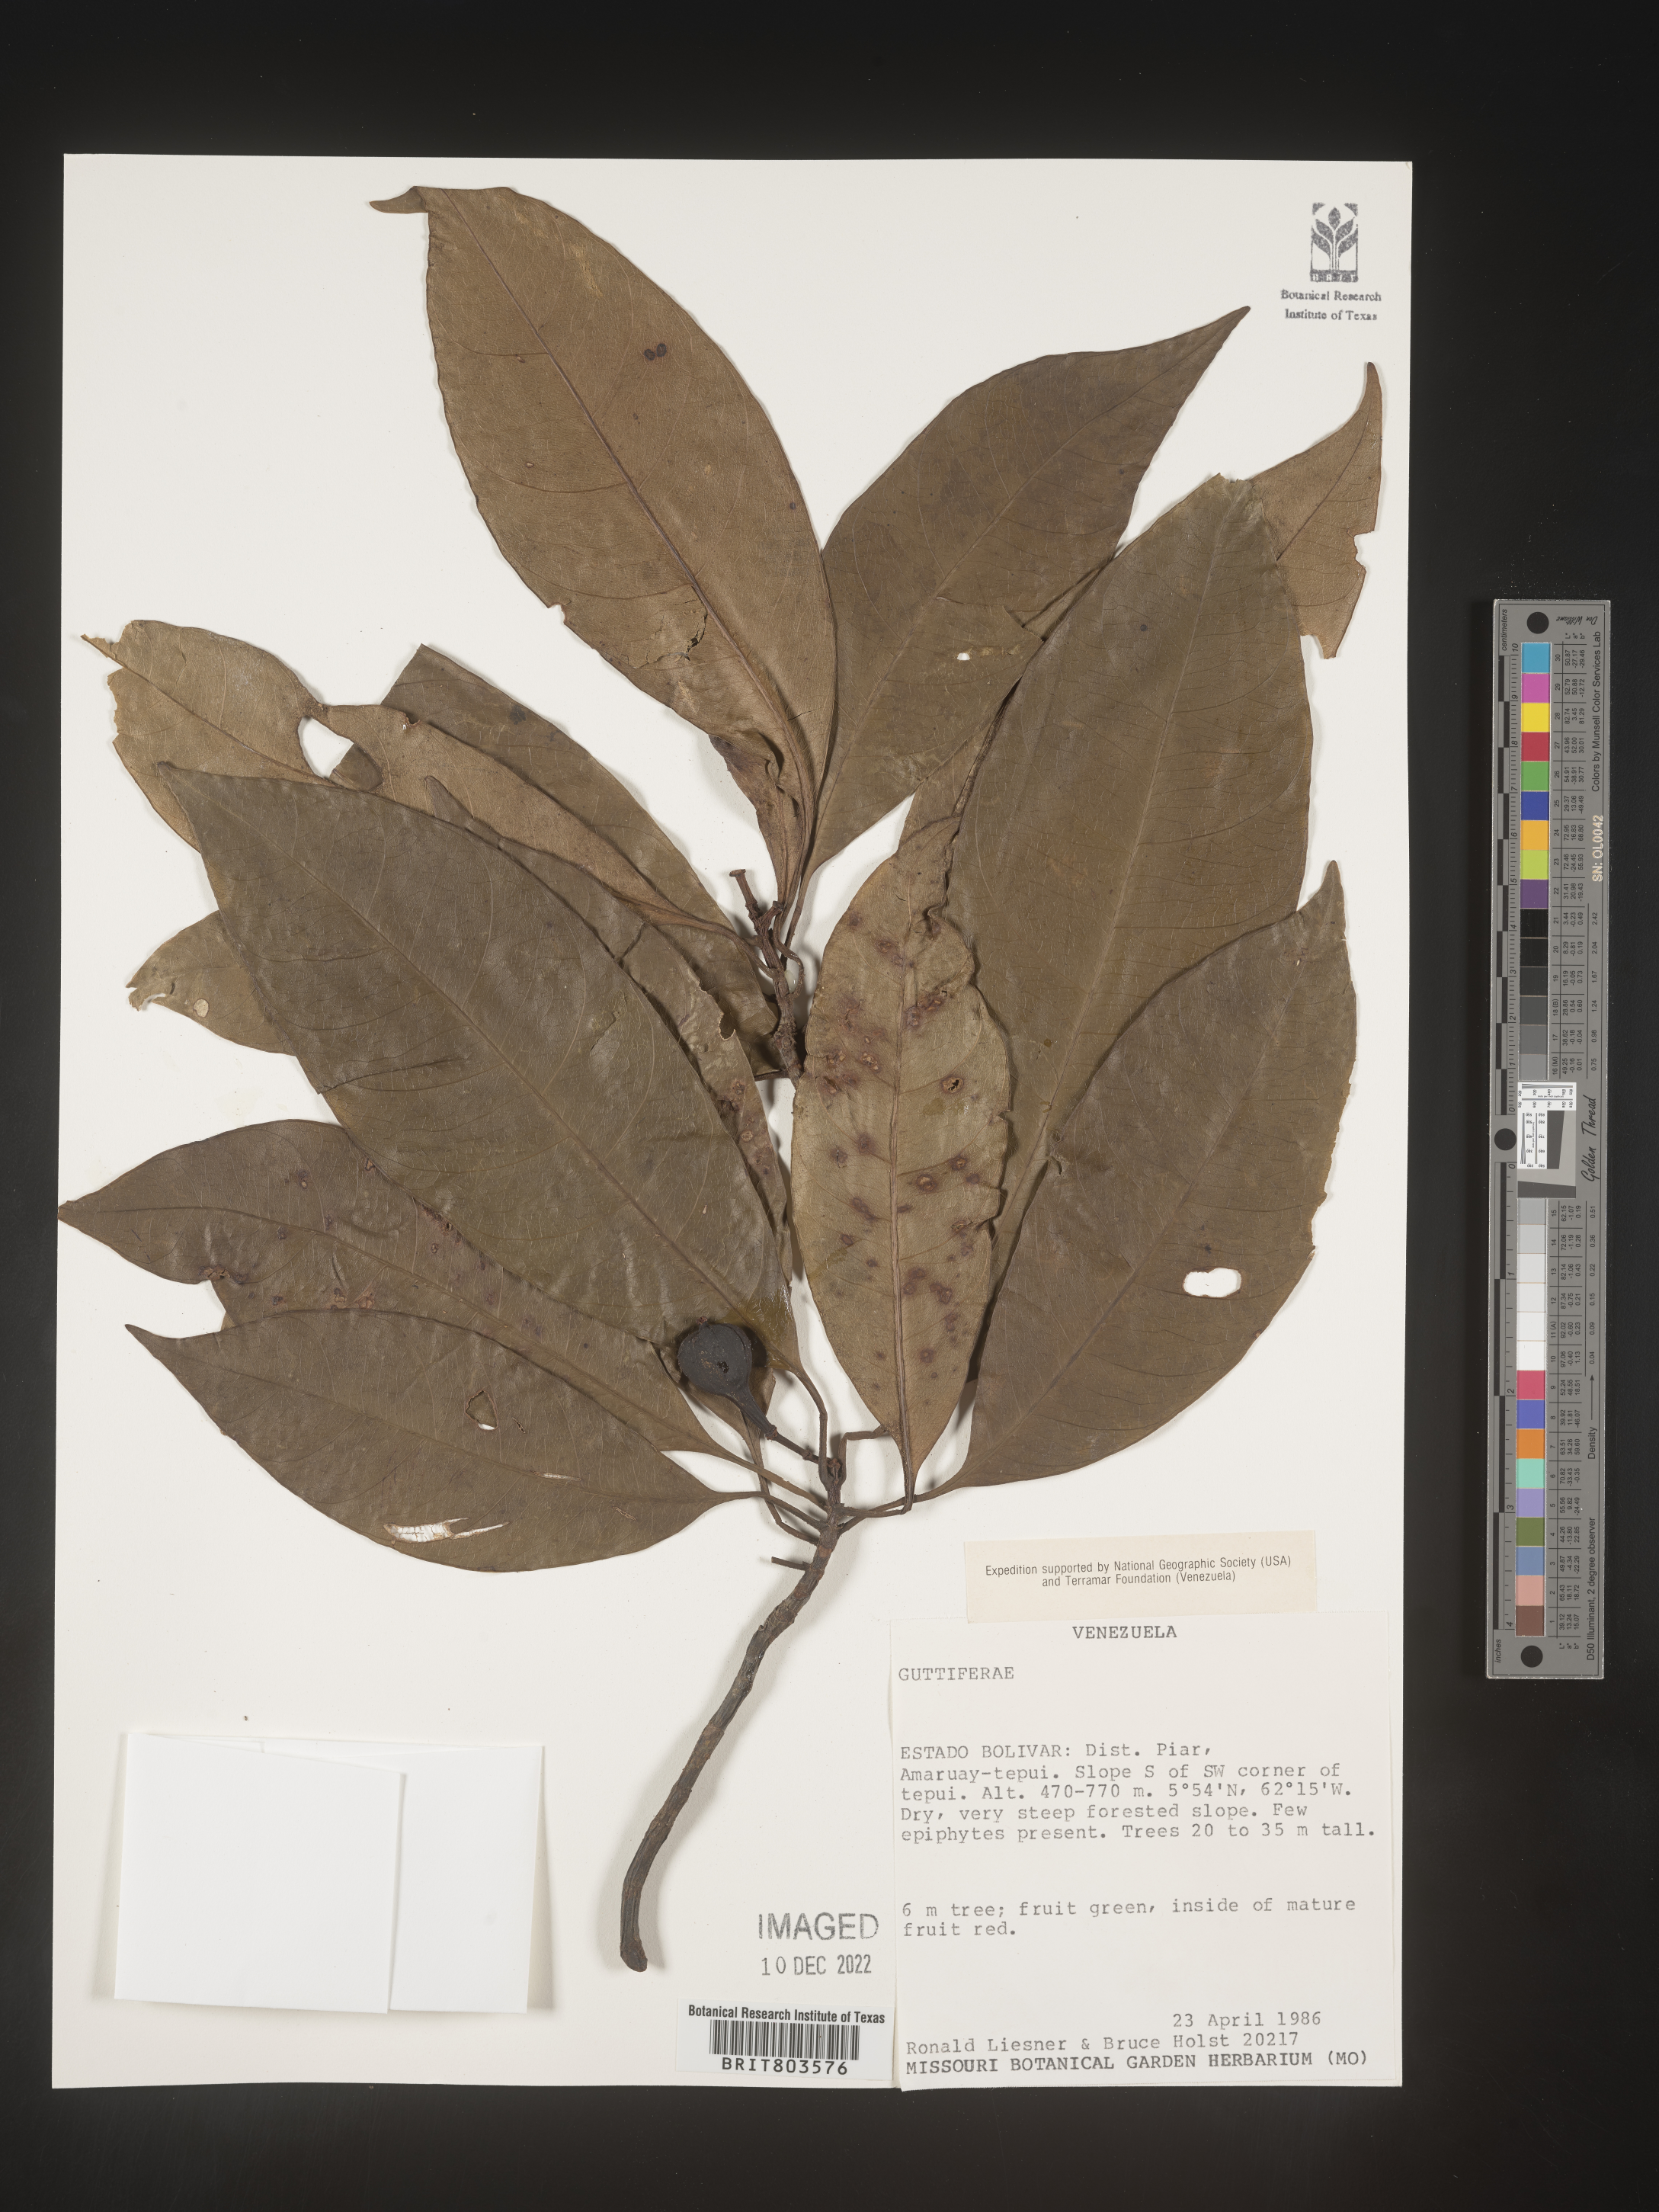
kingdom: Plantae
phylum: Tracheophyta
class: Magnoliopsida
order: Malpighiales
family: Clusiaceae
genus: Tovomita
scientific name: Tovomita
